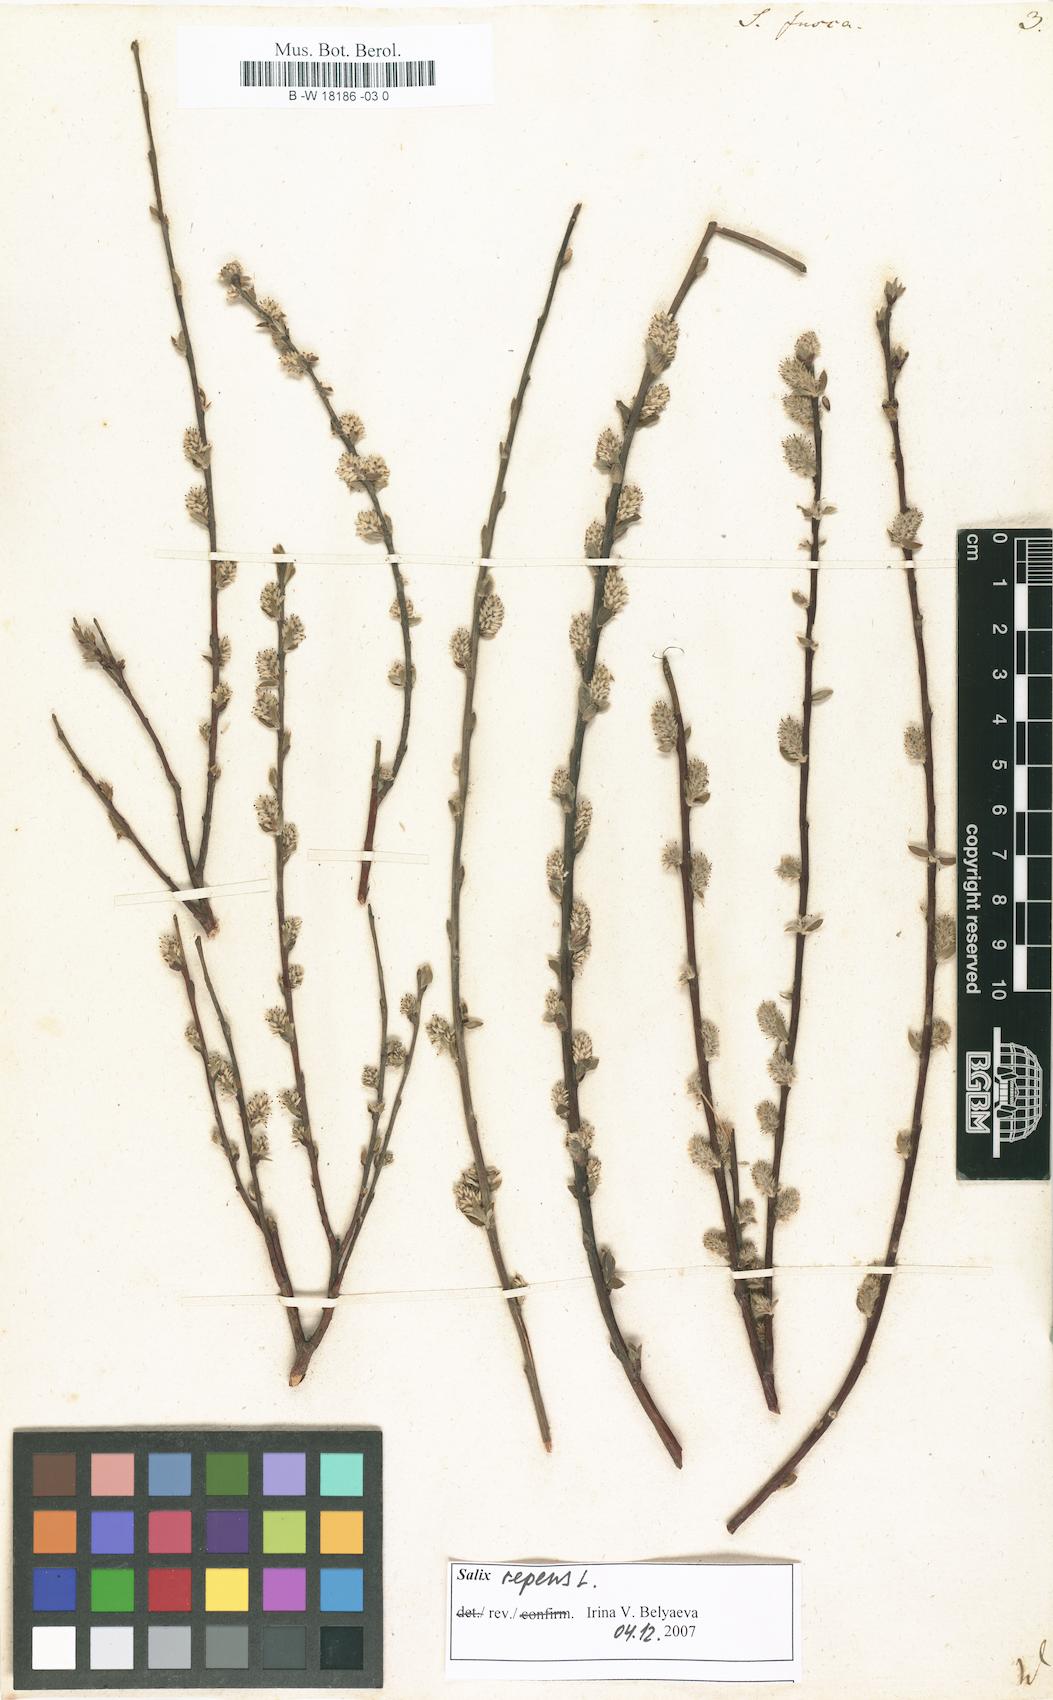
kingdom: Plantae
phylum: Tracheophyta
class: Magnoliopsida
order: Malpighiales
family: Salicaceae
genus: Salix
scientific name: Salix repens
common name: Creeping willow
